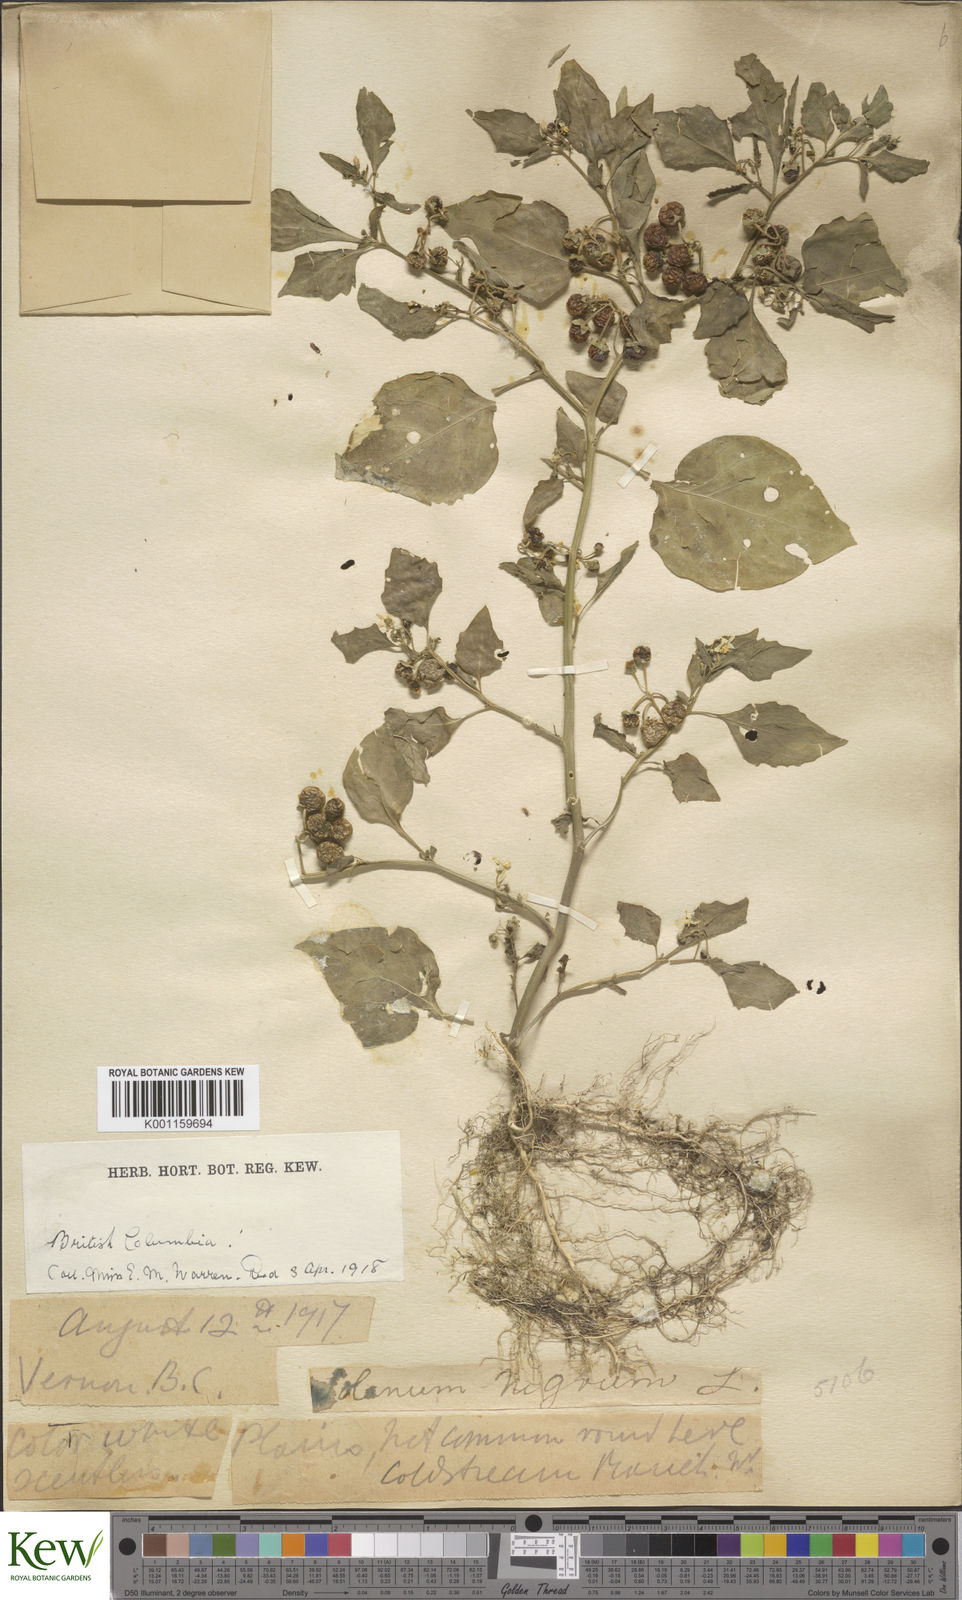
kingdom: Plantae
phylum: Tracheophyta
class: Magnoliopsida
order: Solanales
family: Solanaceae
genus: Solanum
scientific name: Solanum nigrum
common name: Black nightshade
